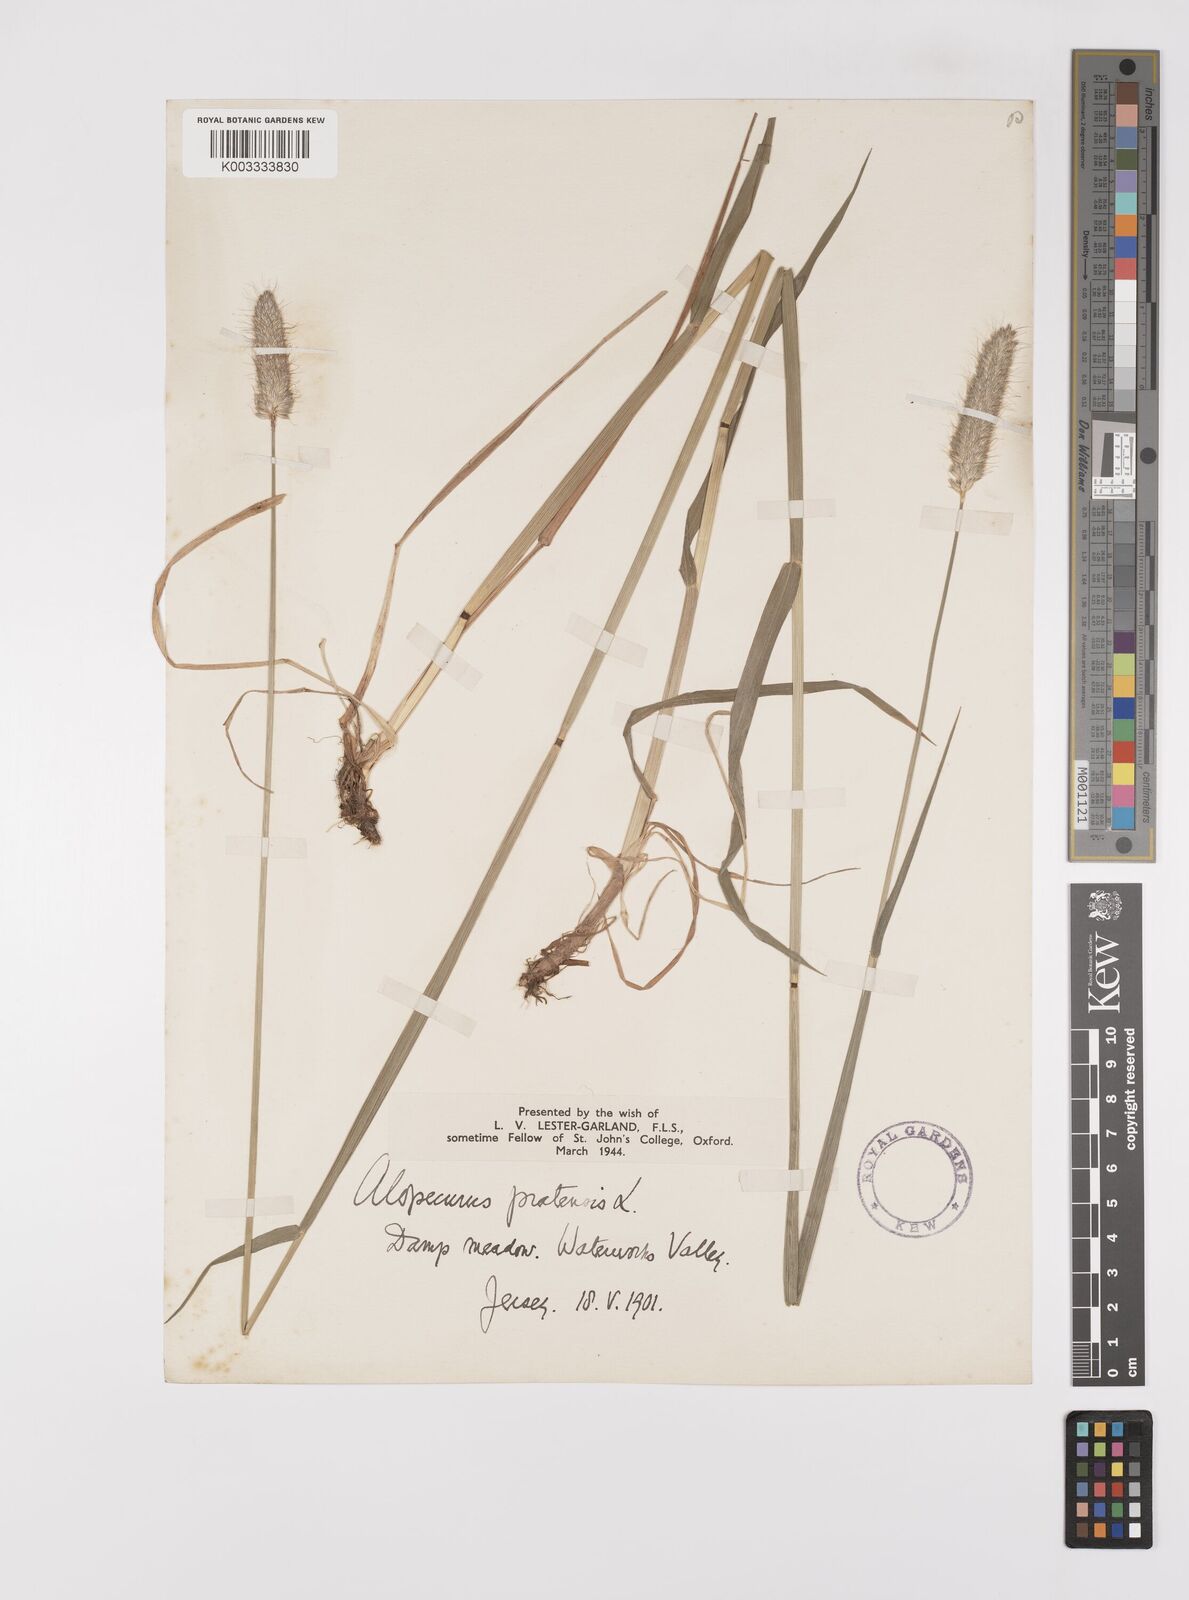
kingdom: Plantae
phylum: Tracheophyta
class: Liliopsida
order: Poales
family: Poaceae
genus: Alopecurus
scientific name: Alopecurus pratensis
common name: Meadow foxtail
